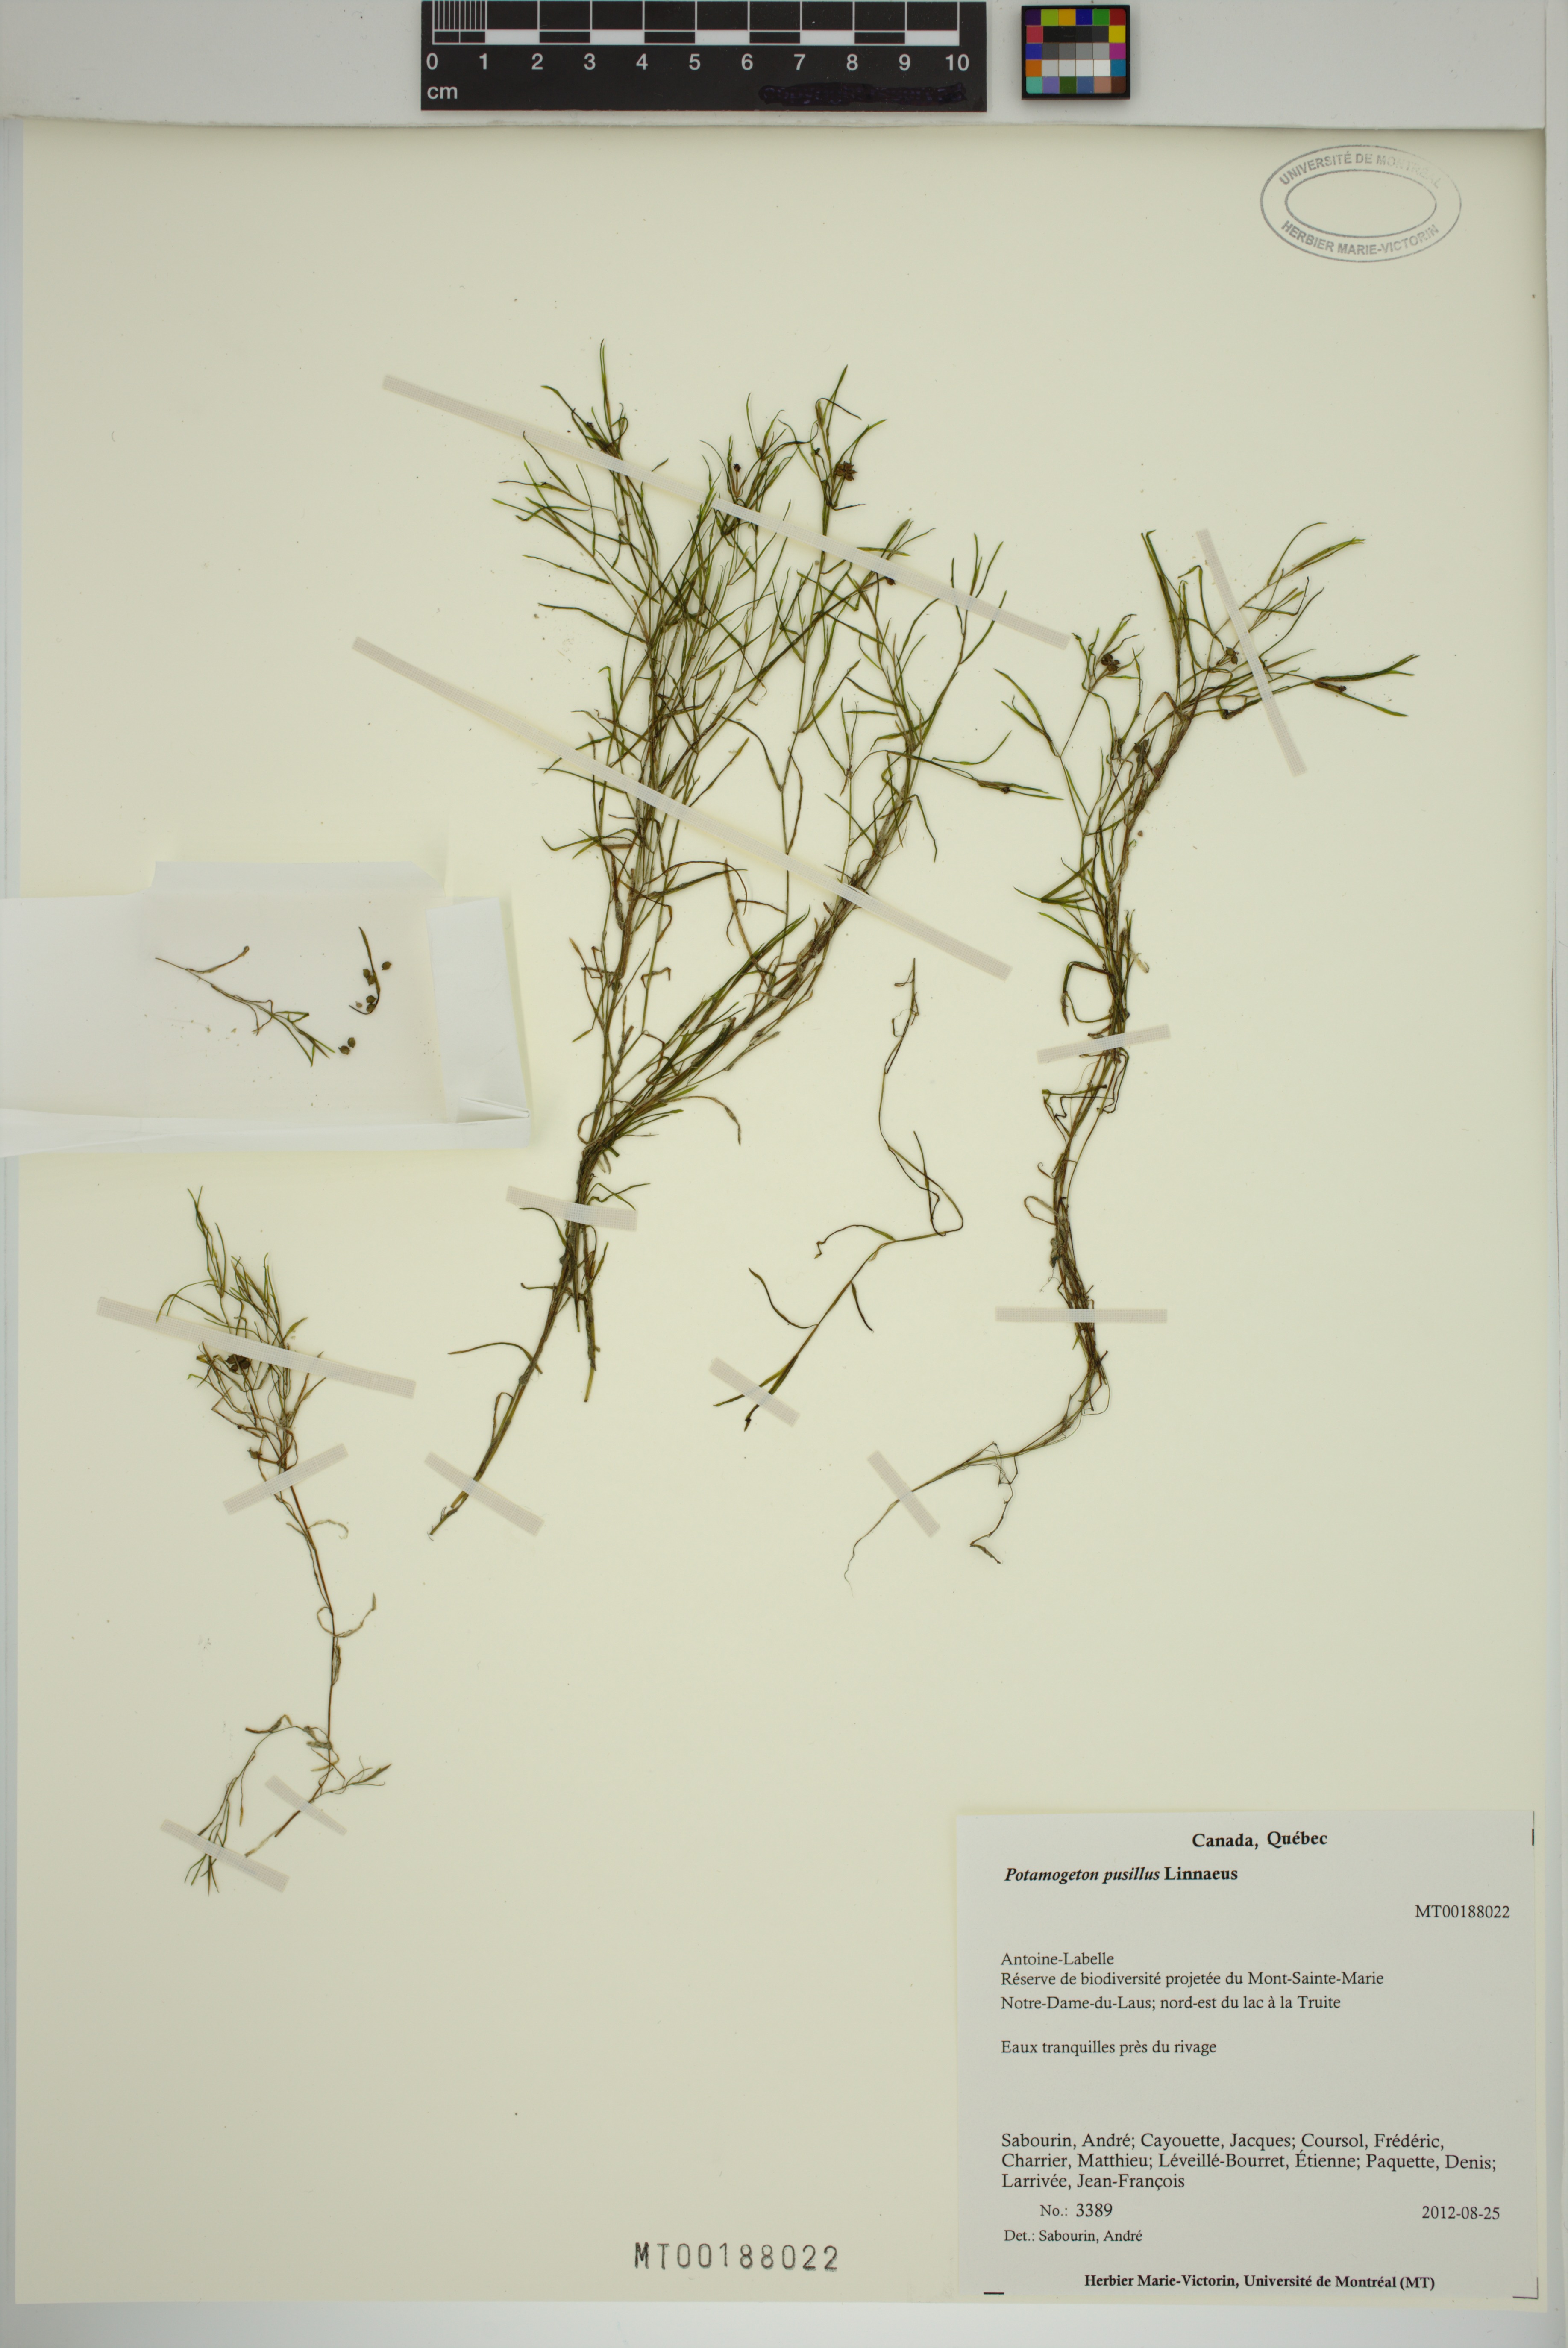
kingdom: Plantae
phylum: Tracheophyta
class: Liliopsida
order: Alismatales
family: Potamogetonaceae
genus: Potamogeton
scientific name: Potamogeton pusillus
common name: Lesser pondweed
